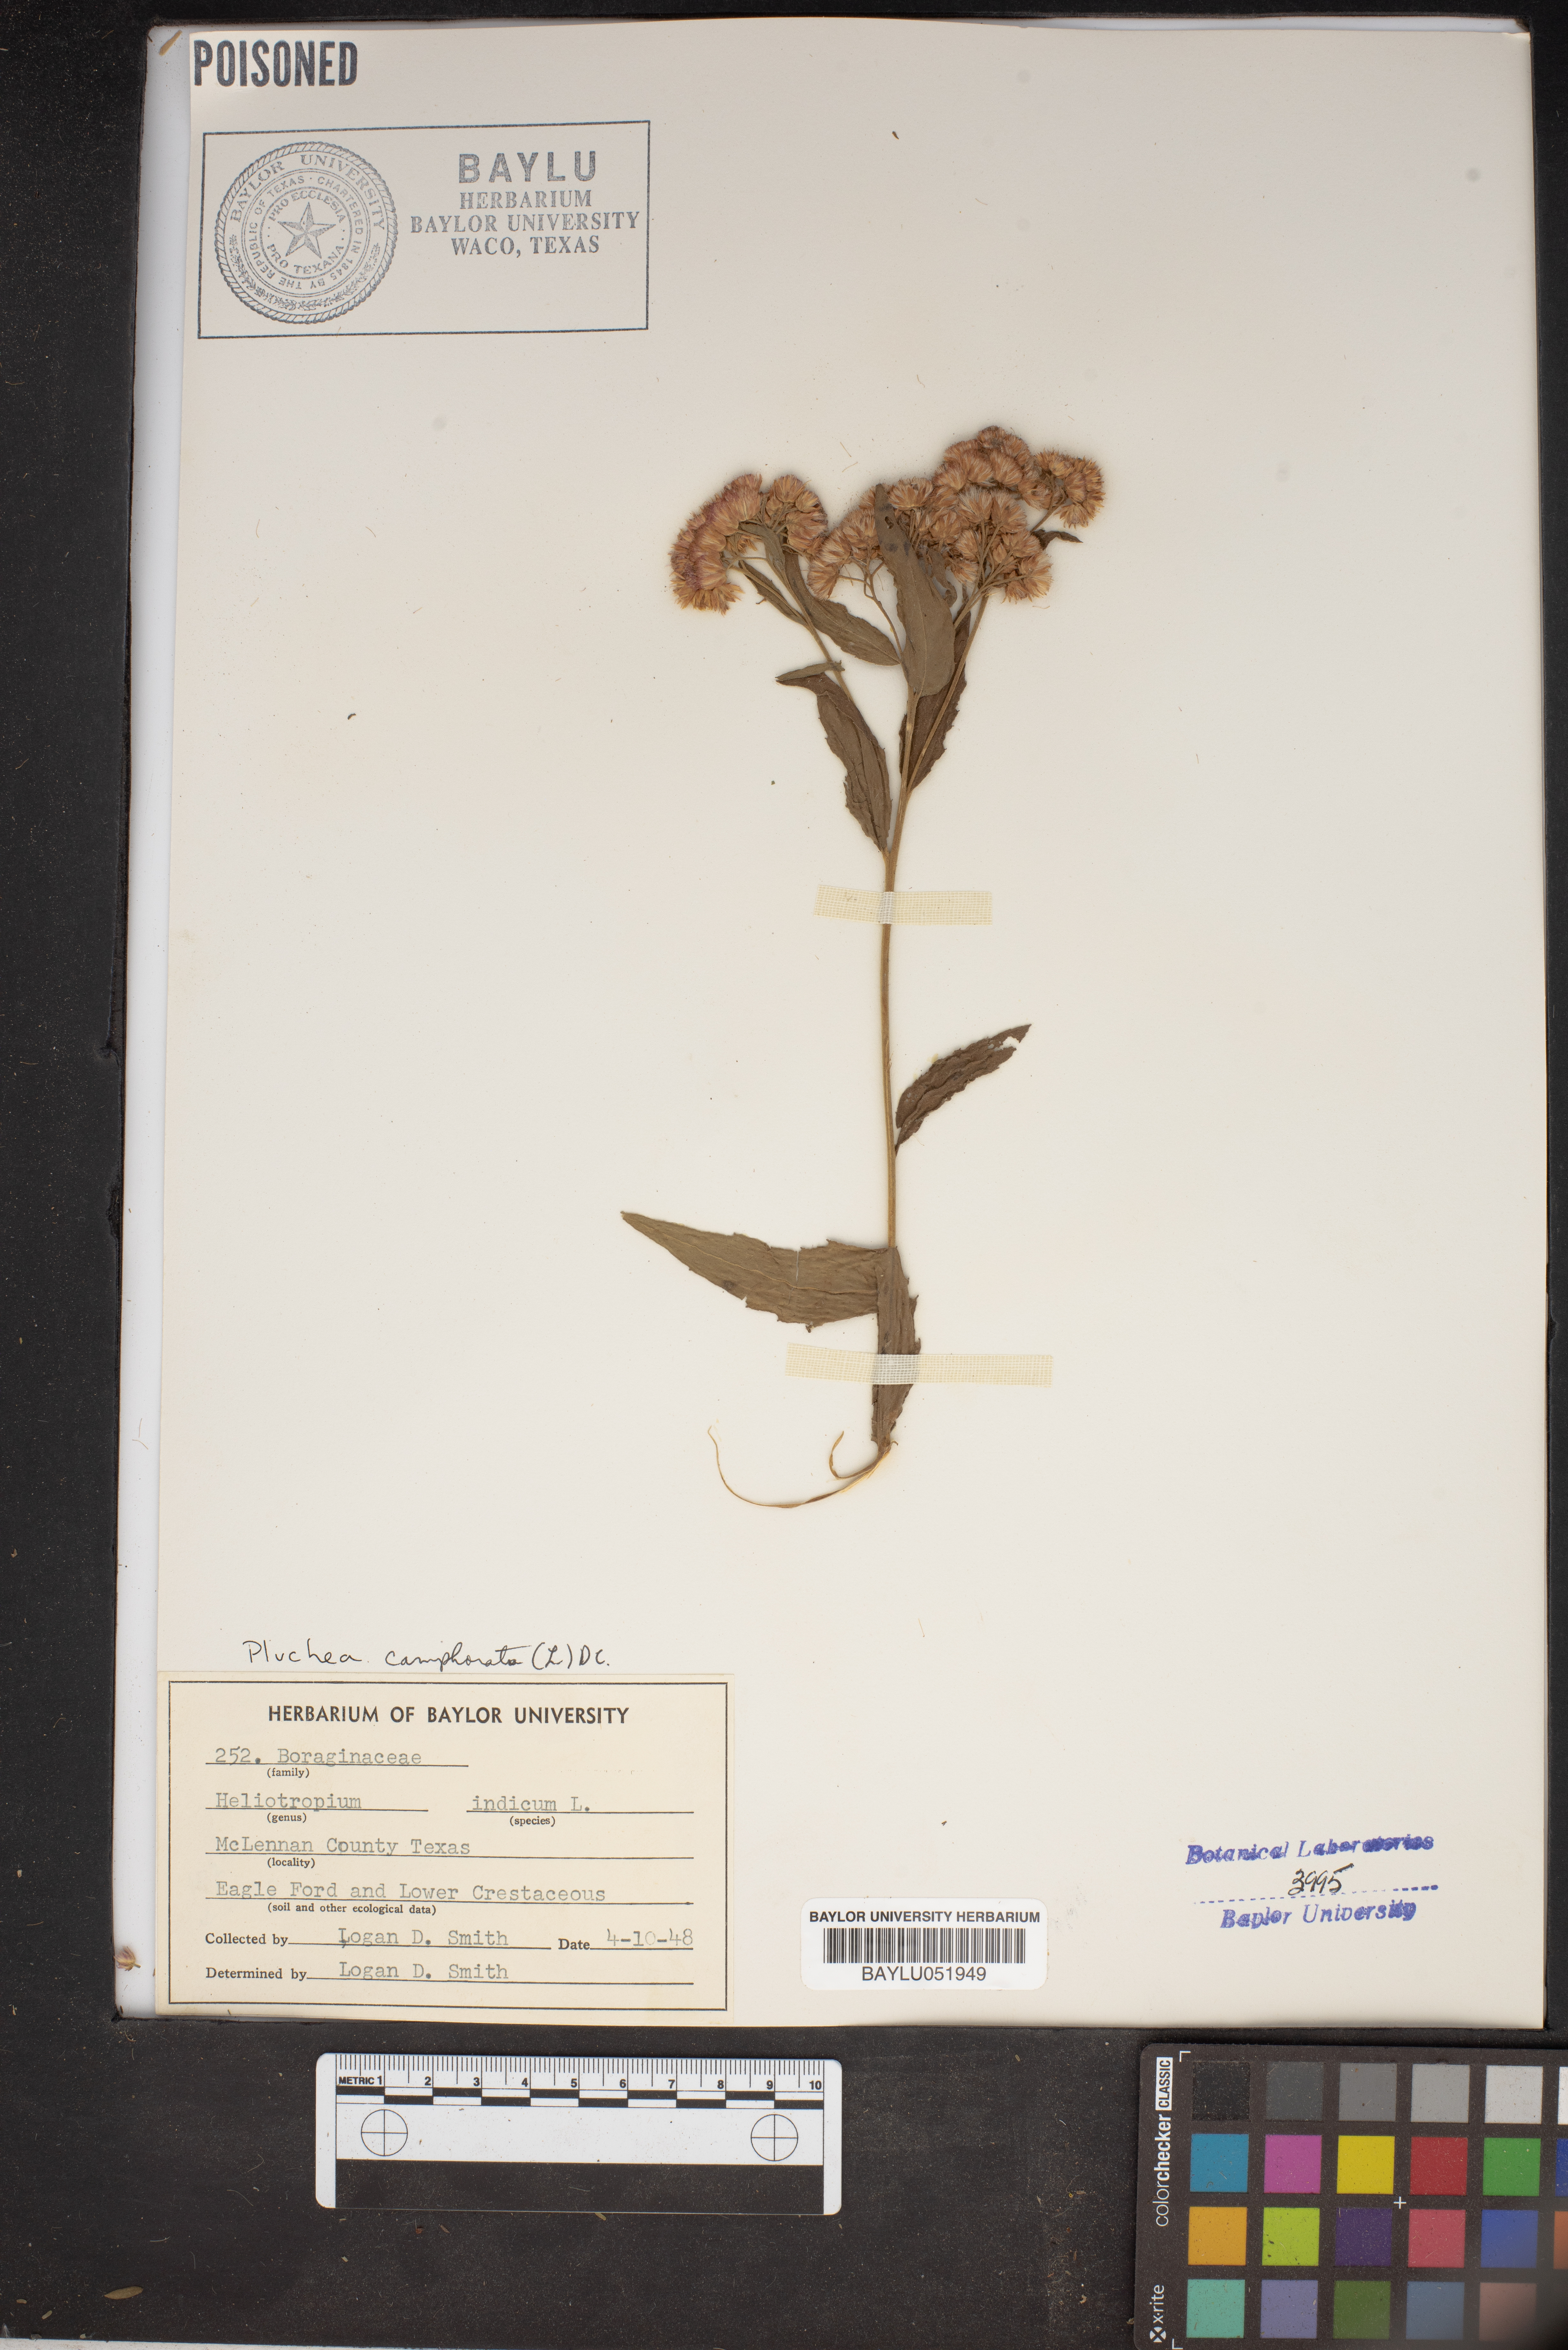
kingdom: Plantae
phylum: Tracheophyta
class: Magnoliopsida
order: Boraginales
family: Heliotropiaceae
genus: Heliotropium
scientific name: Heliotropium indicum
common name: Indian heliotrope
